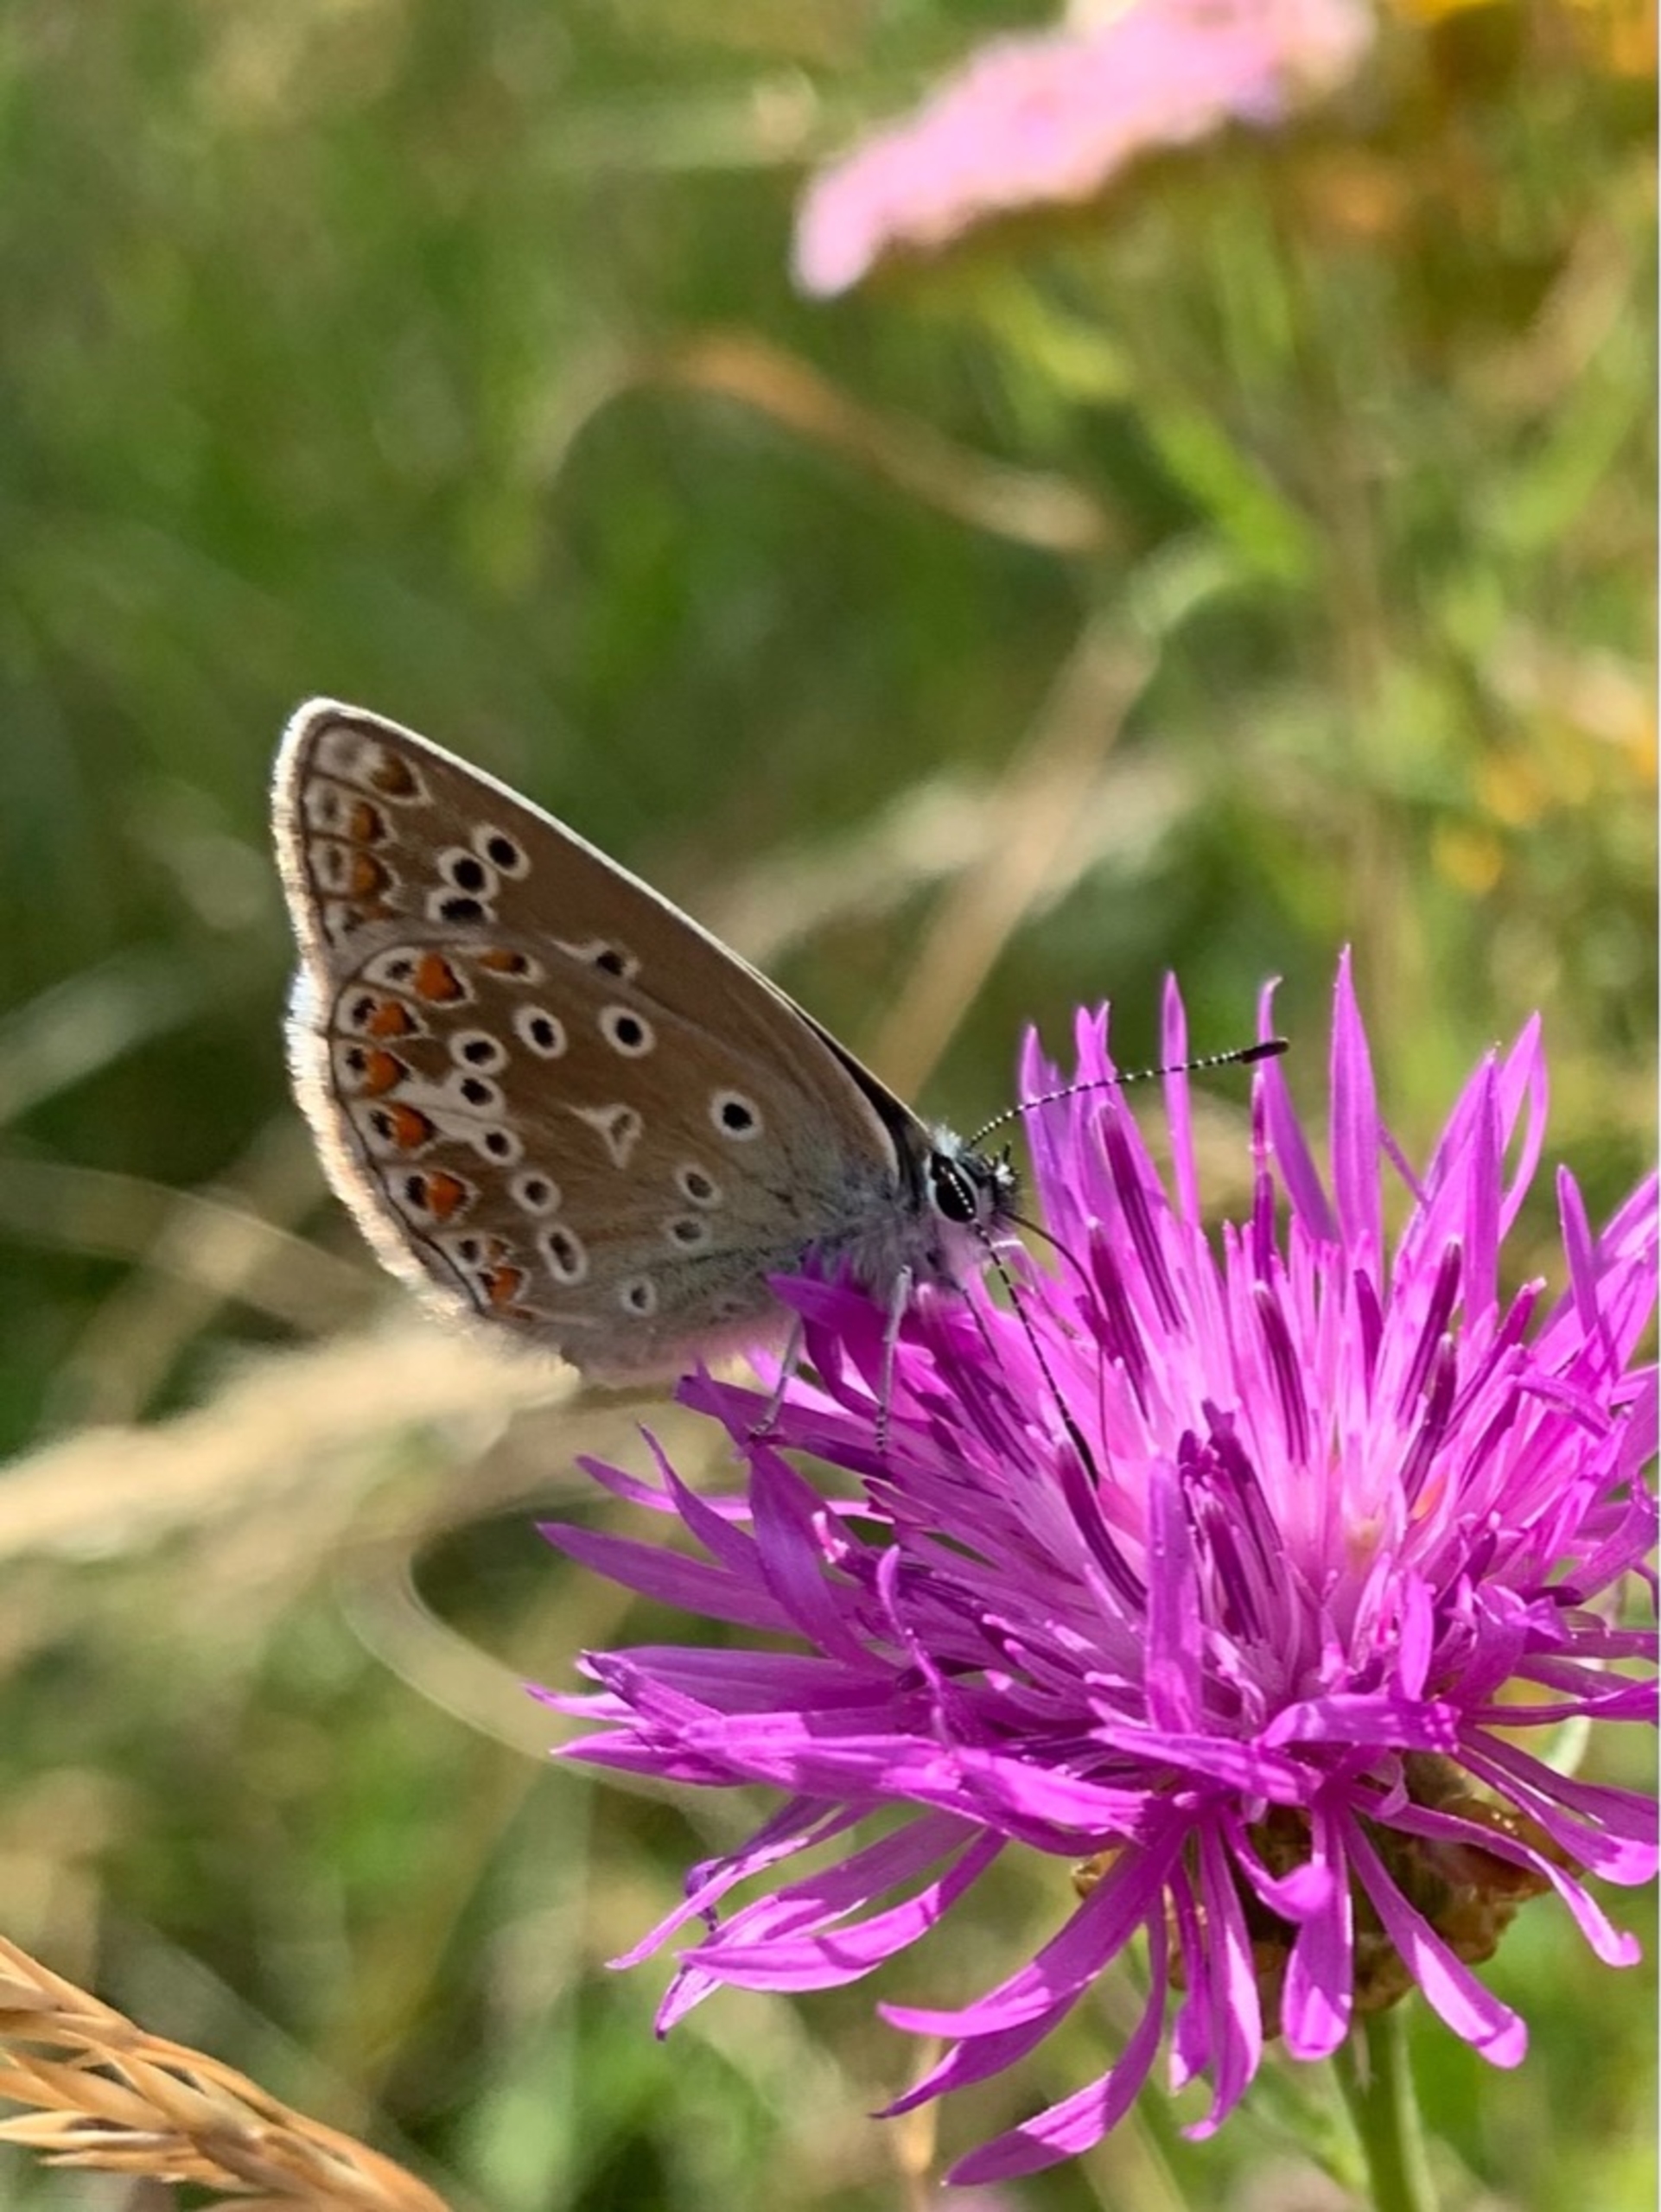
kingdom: Animalia
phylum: Arthropoda
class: Insecta
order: Lepidoptera
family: Lycaenidae
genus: Polyommatus
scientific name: Polyommatus icarus
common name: Almindelig blåfugl
